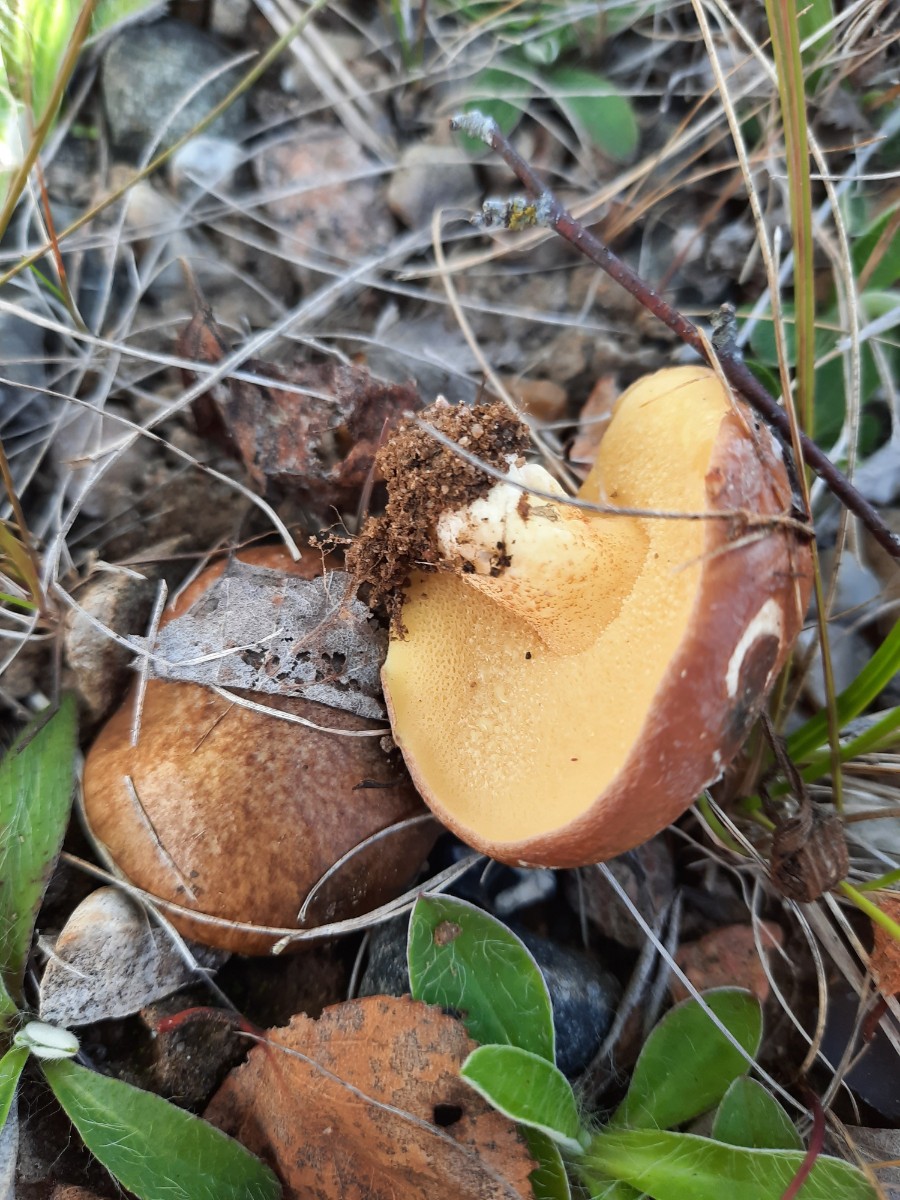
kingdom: Fungi
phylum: Basidiomycota
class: Agaricomycetes
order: Boletales
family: Suillaceae
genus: Suillus
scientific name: Suillus granulatus
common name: kornet slimrørhat
